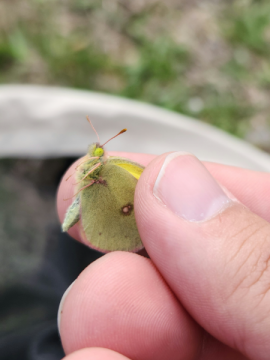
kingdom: Animalia
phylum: Arthropoda
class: Insecta
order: Lepidoptera
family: Pieridae
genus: Colias
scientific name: Colias philodice
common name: Clouded Sulphur
